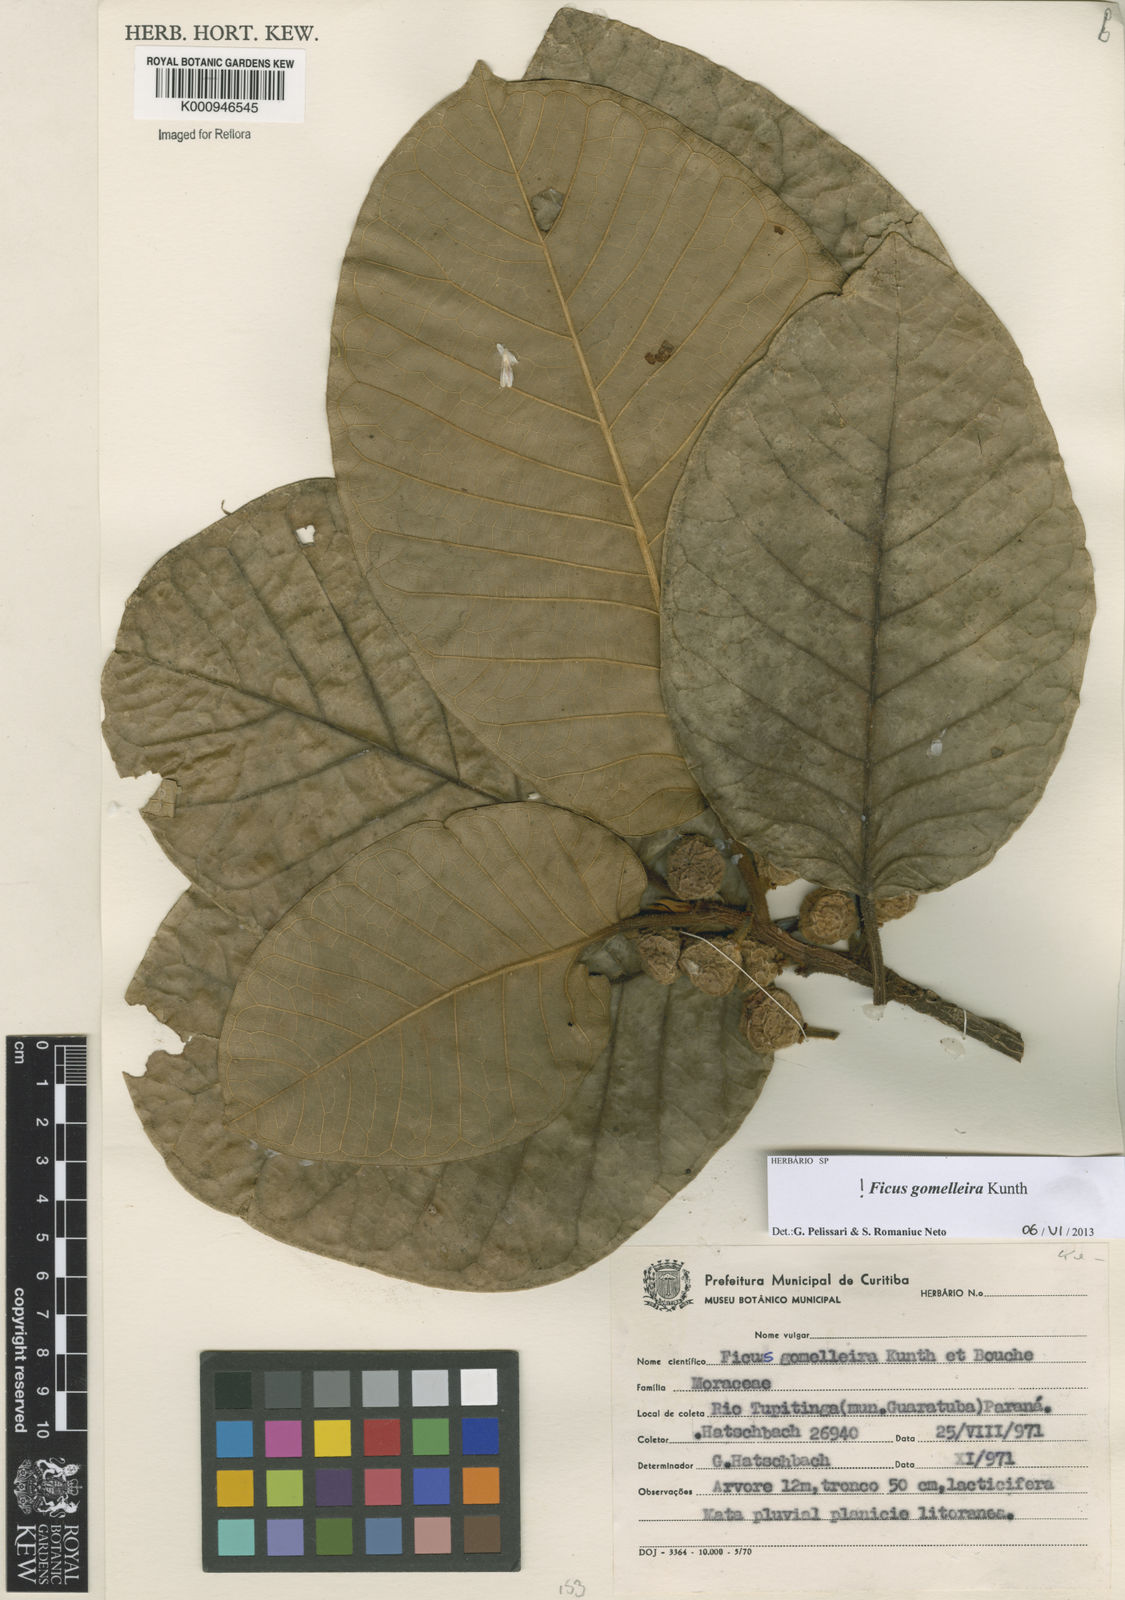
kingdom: Plantae
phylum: Tracheophyta
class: Magnoliopsida
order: Rosales
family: Moraceae
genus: Ficus
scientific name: Ficus gomelleira
